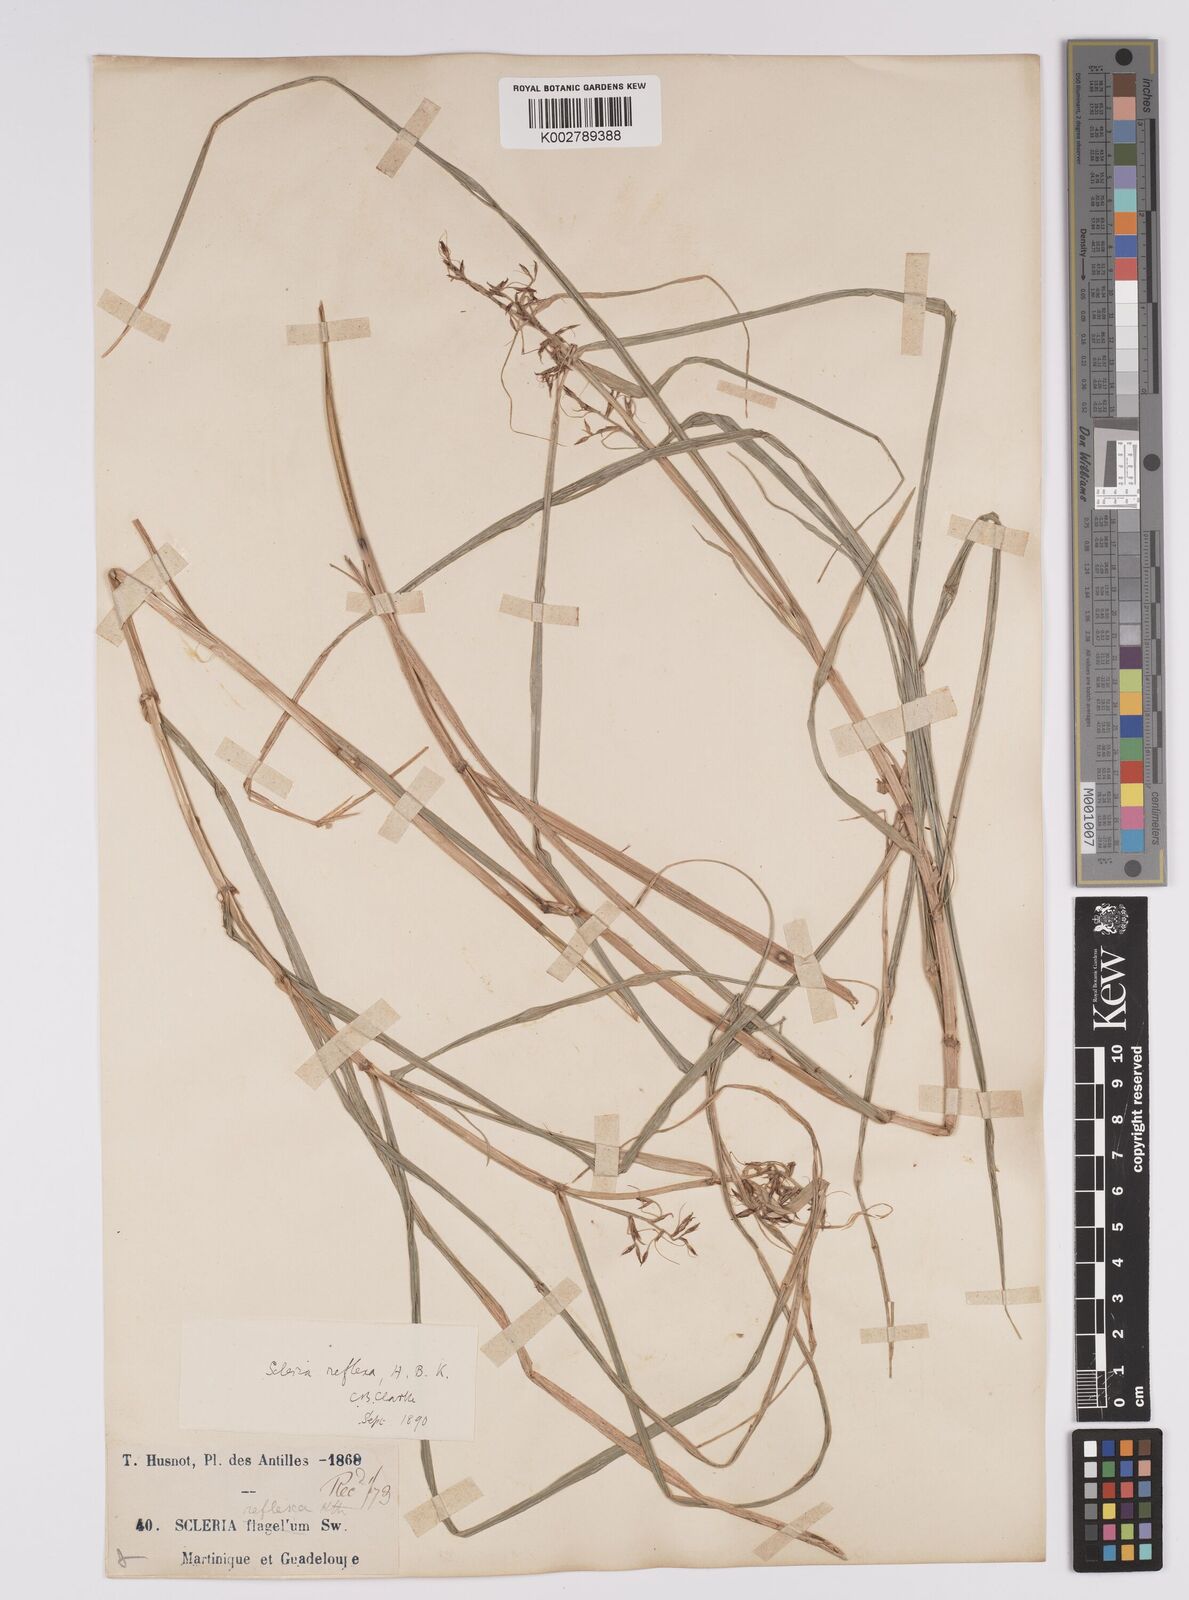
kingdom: Plantae
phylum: Tracheophyta
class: Liliopsida
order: Poales
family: Cyperaceae
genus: Scleria
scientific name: Scleria secans
